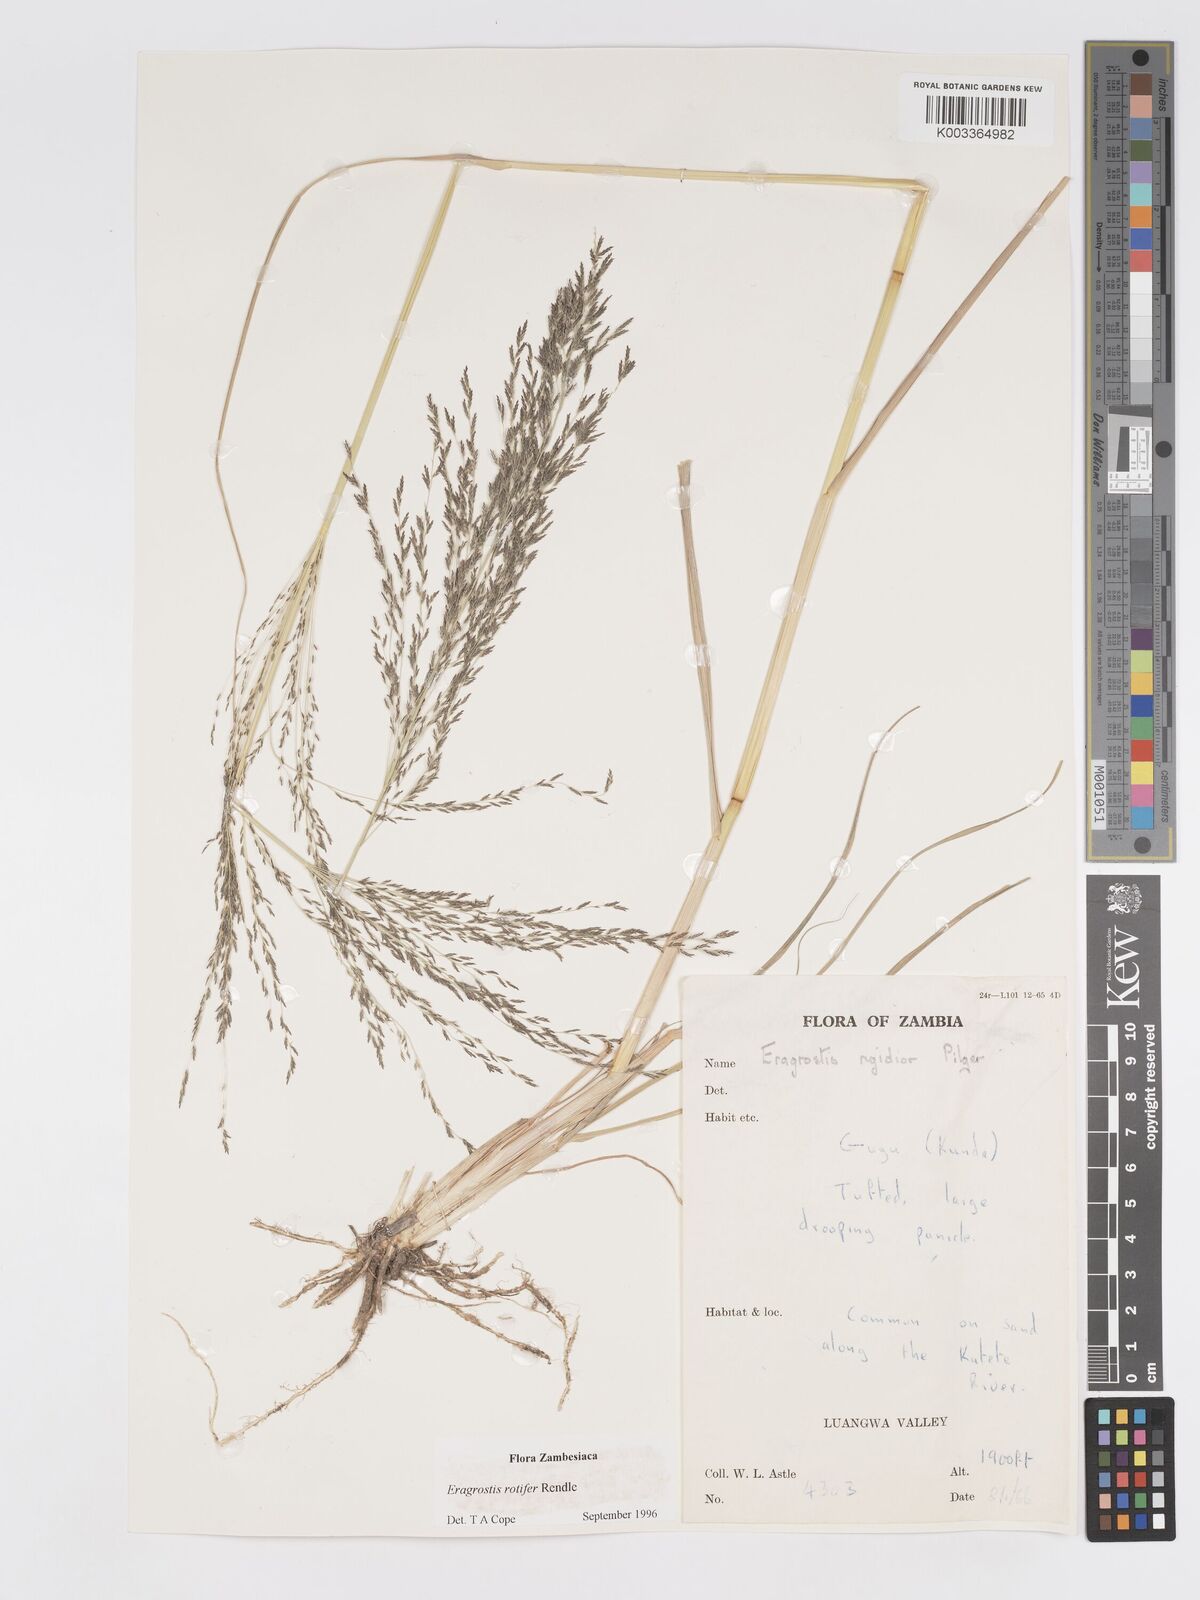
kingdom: Plantae
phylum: Tracheophyta
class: Liliopsida
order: Poales
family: Poaceae
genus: Eragrostis
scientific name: Eragrostis rotifer
